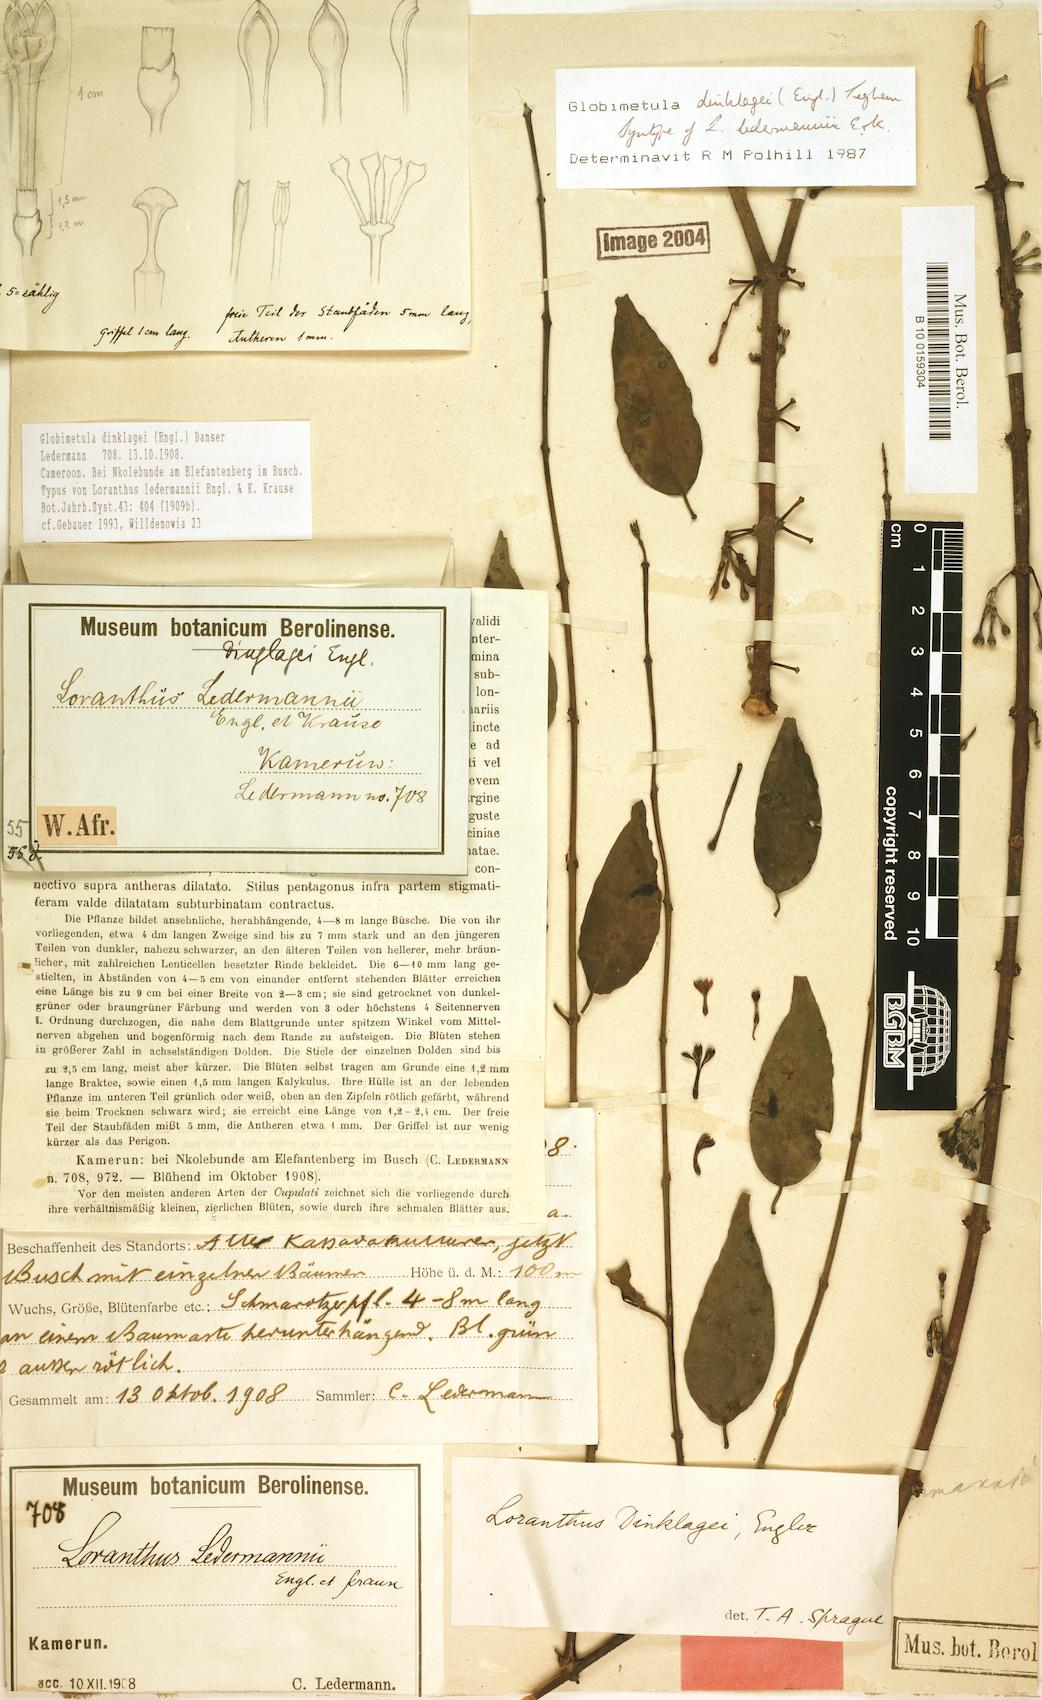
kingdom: Plantae
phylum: Tracheophyta
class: Magnoliopsida
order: Santalales
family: Loranthaceae
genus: Globimetula
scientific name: Globimetula dinklagei
